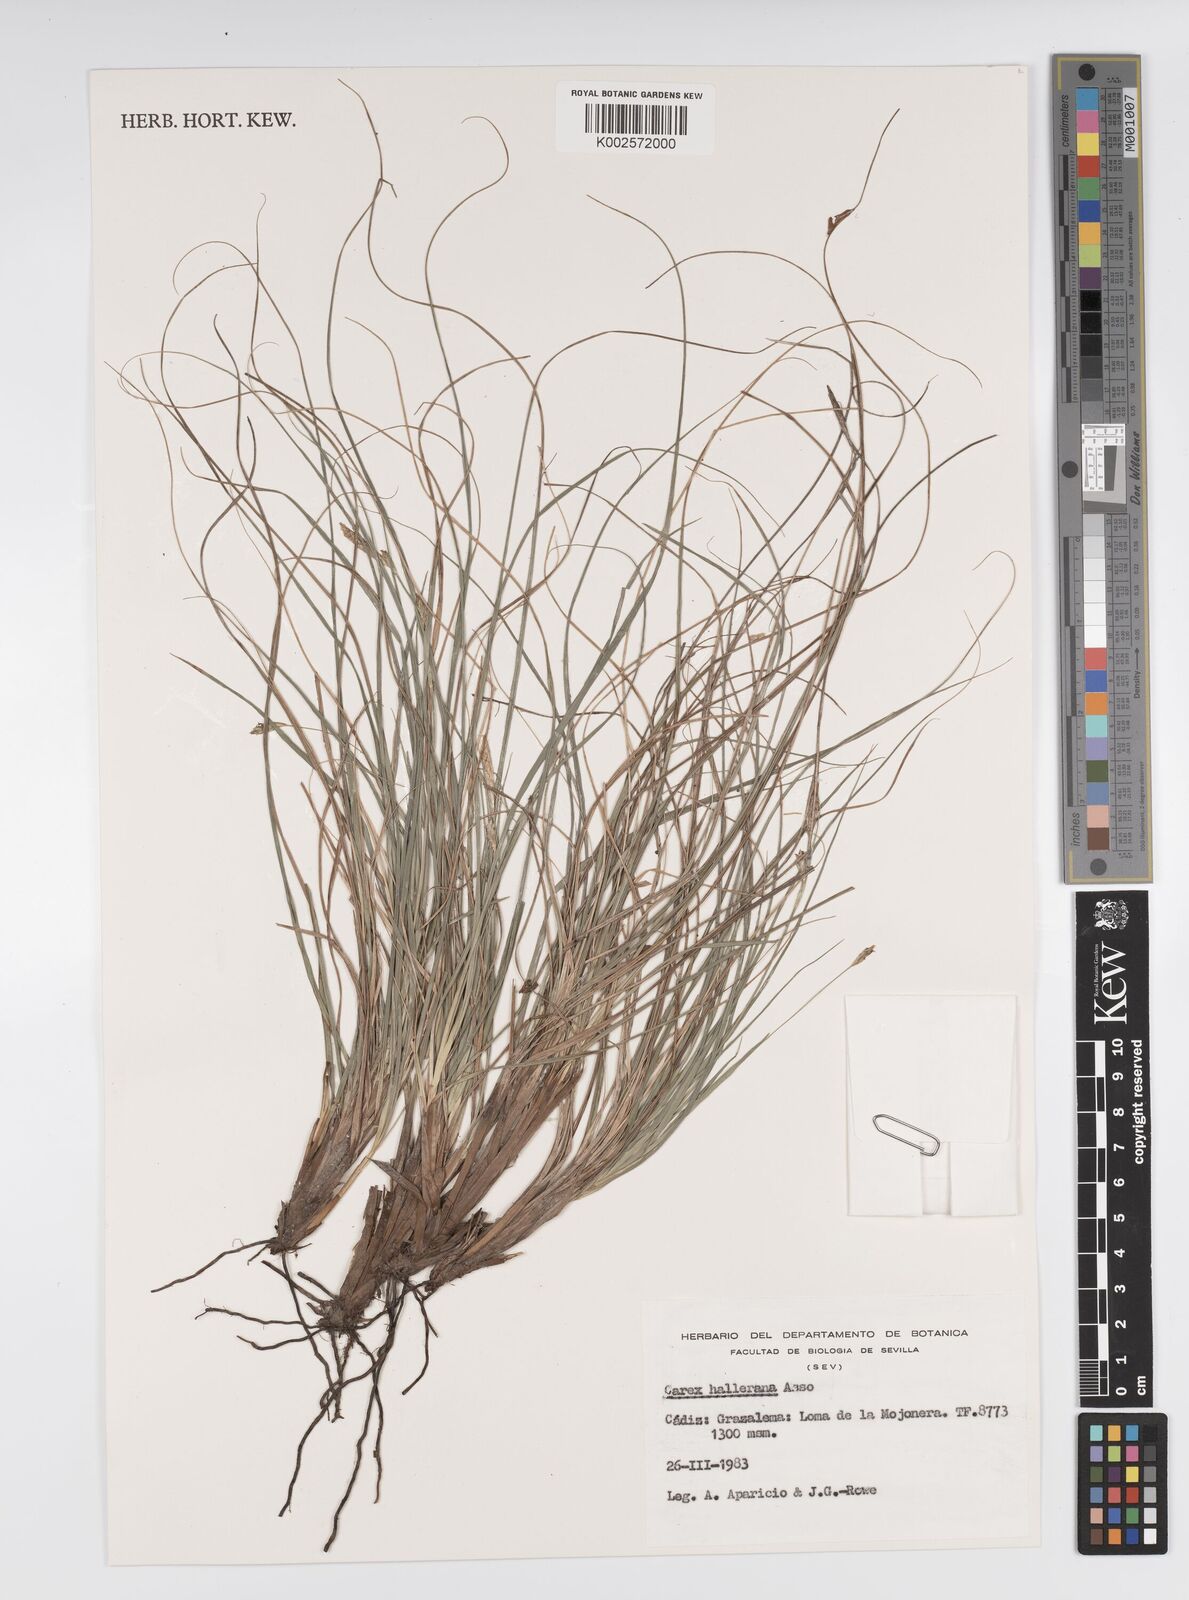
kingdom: Plantae
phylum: Tracheophyta
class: Liliopsida
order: Poales
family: Cyperaceae
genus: Carex
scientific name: Carex halleriana
